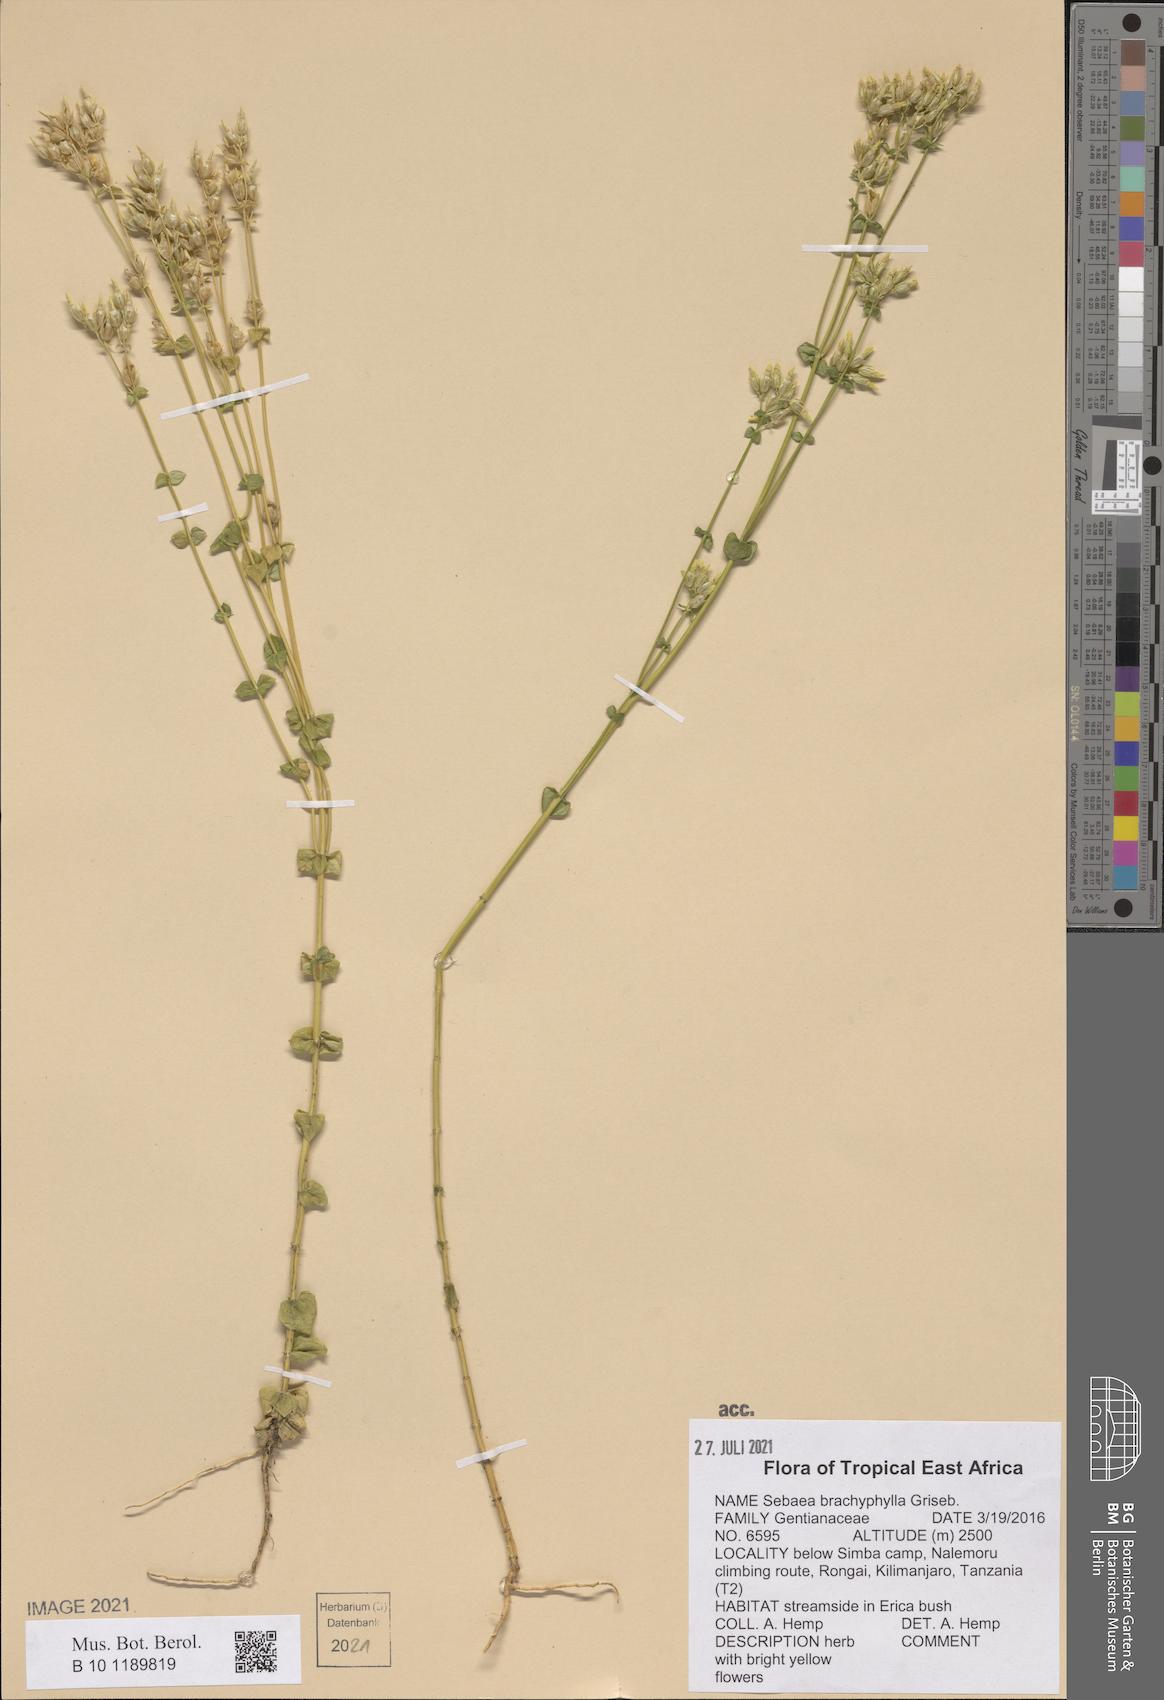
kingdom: Plantae
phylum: Tracheophyta
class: Magnoliopsida
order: Gentianales
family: Gentianaceae
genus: Sebaea
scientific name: Sebaea brachyphylla
